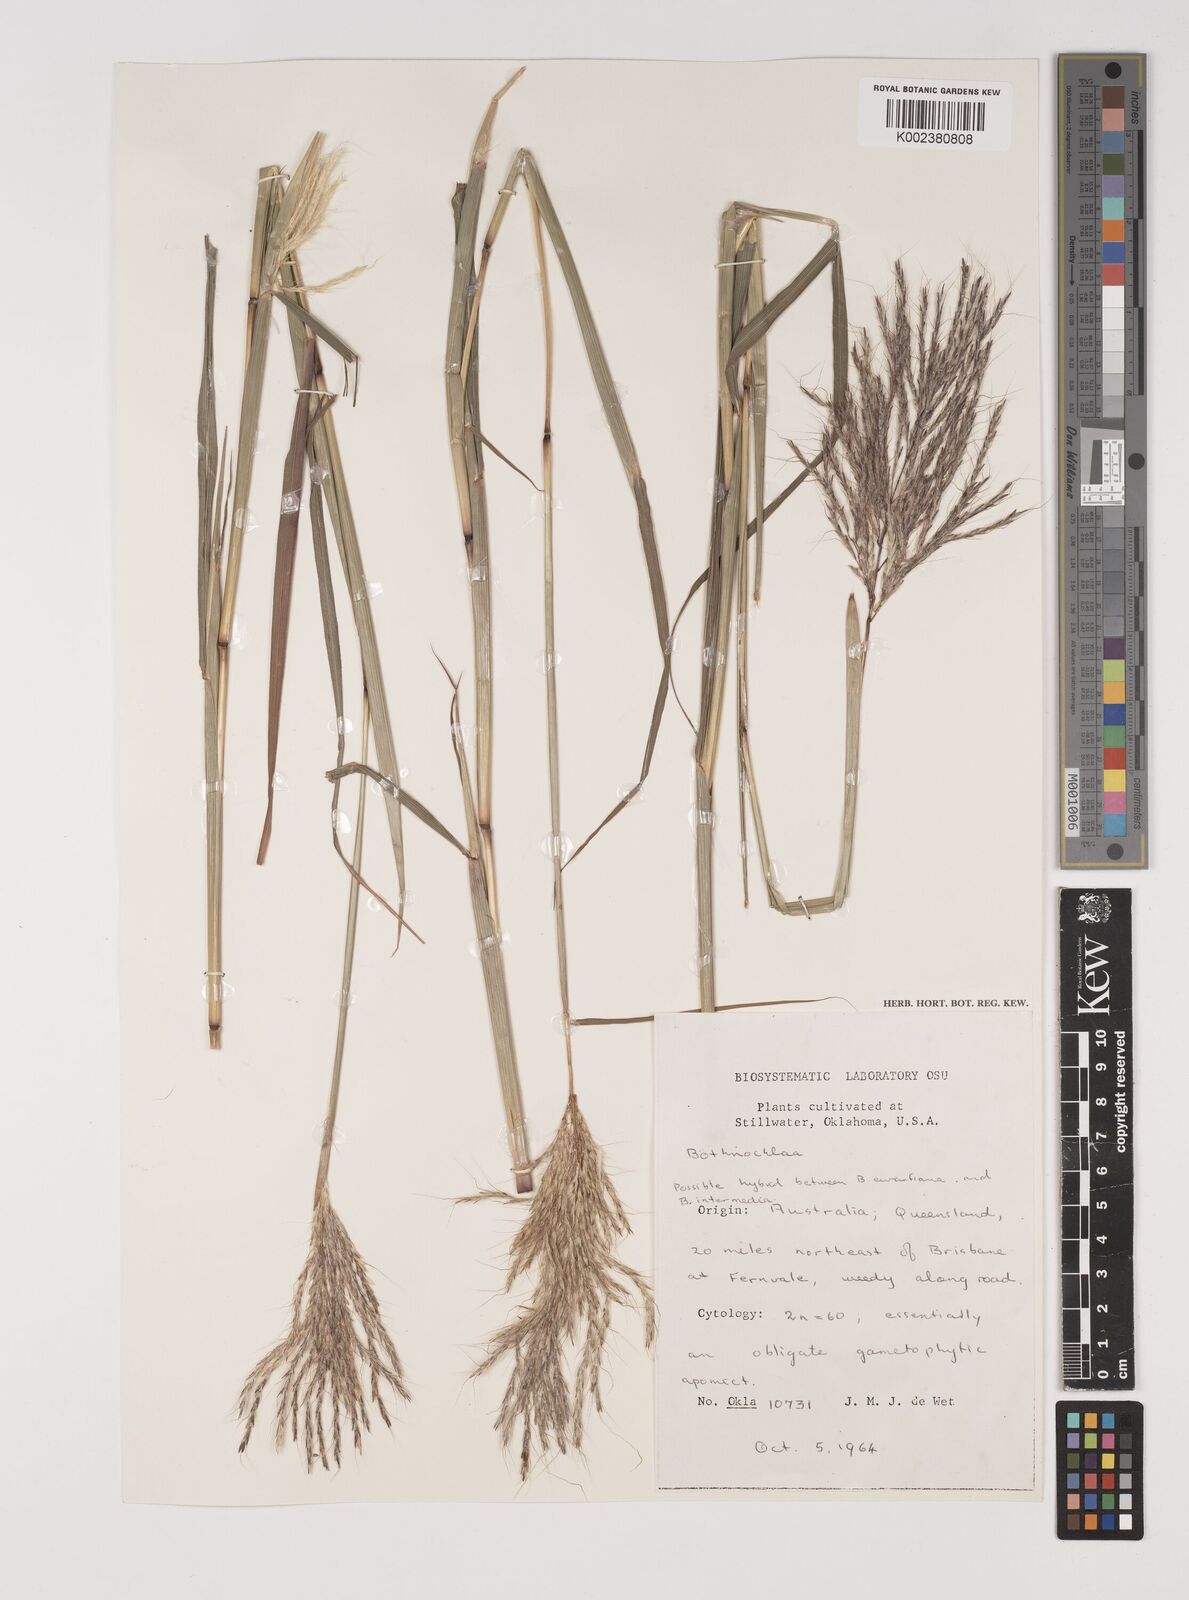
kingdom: Plantae
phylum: Tracheophyta
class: Liliopsida
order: Poales
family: Poaceae
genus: Bothriochloa
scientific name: Bothriochloa bladhii
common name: Caucasian bluestem
